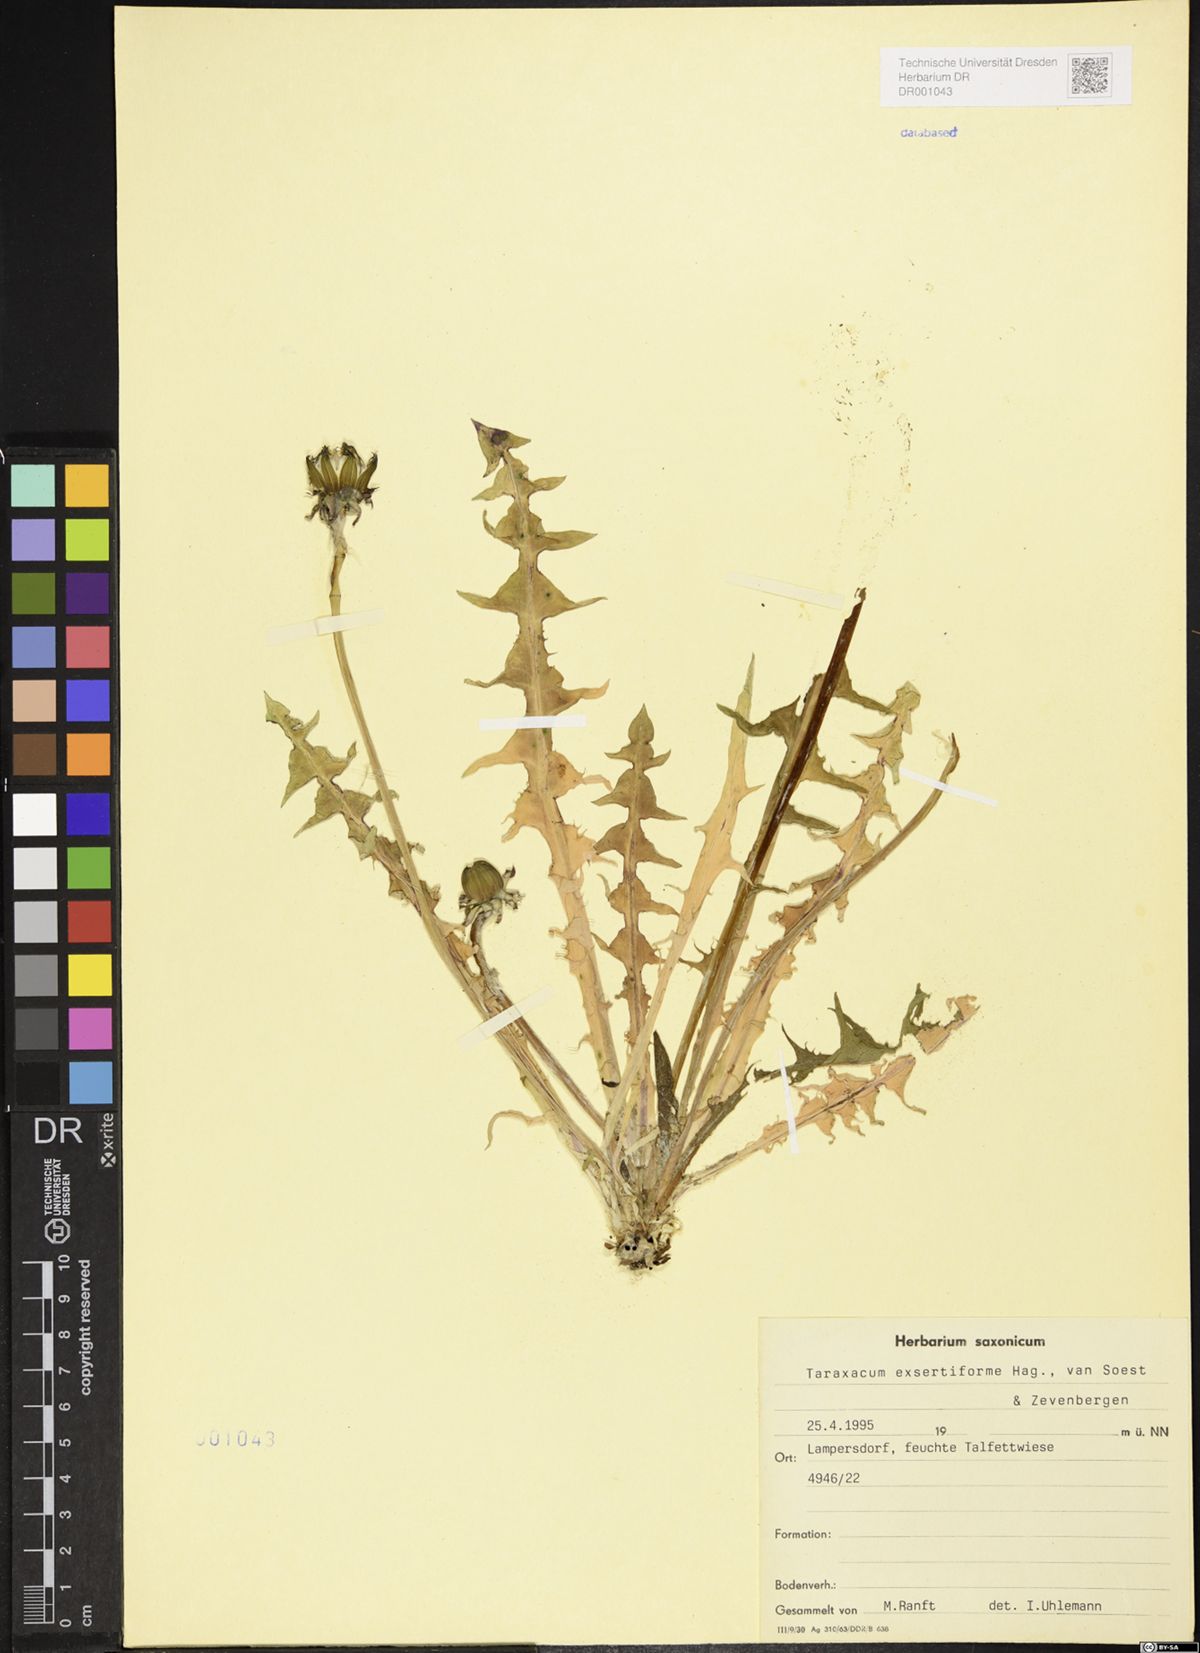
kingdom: Plantae
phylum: Tracheophyta
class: Magnoliopsida
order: Asterales
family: Asteraceae
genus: Taraxacum
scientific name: Taraxacum exsertiforme
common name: Erect-bracted dandelion
